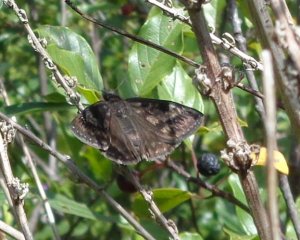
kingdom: Animalia
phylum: Arthropoda
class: Insecta
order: Lepidoptera
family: Hesperiidae
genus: Gesta
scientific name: Gesta
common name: Wild Indigo Duskywing
